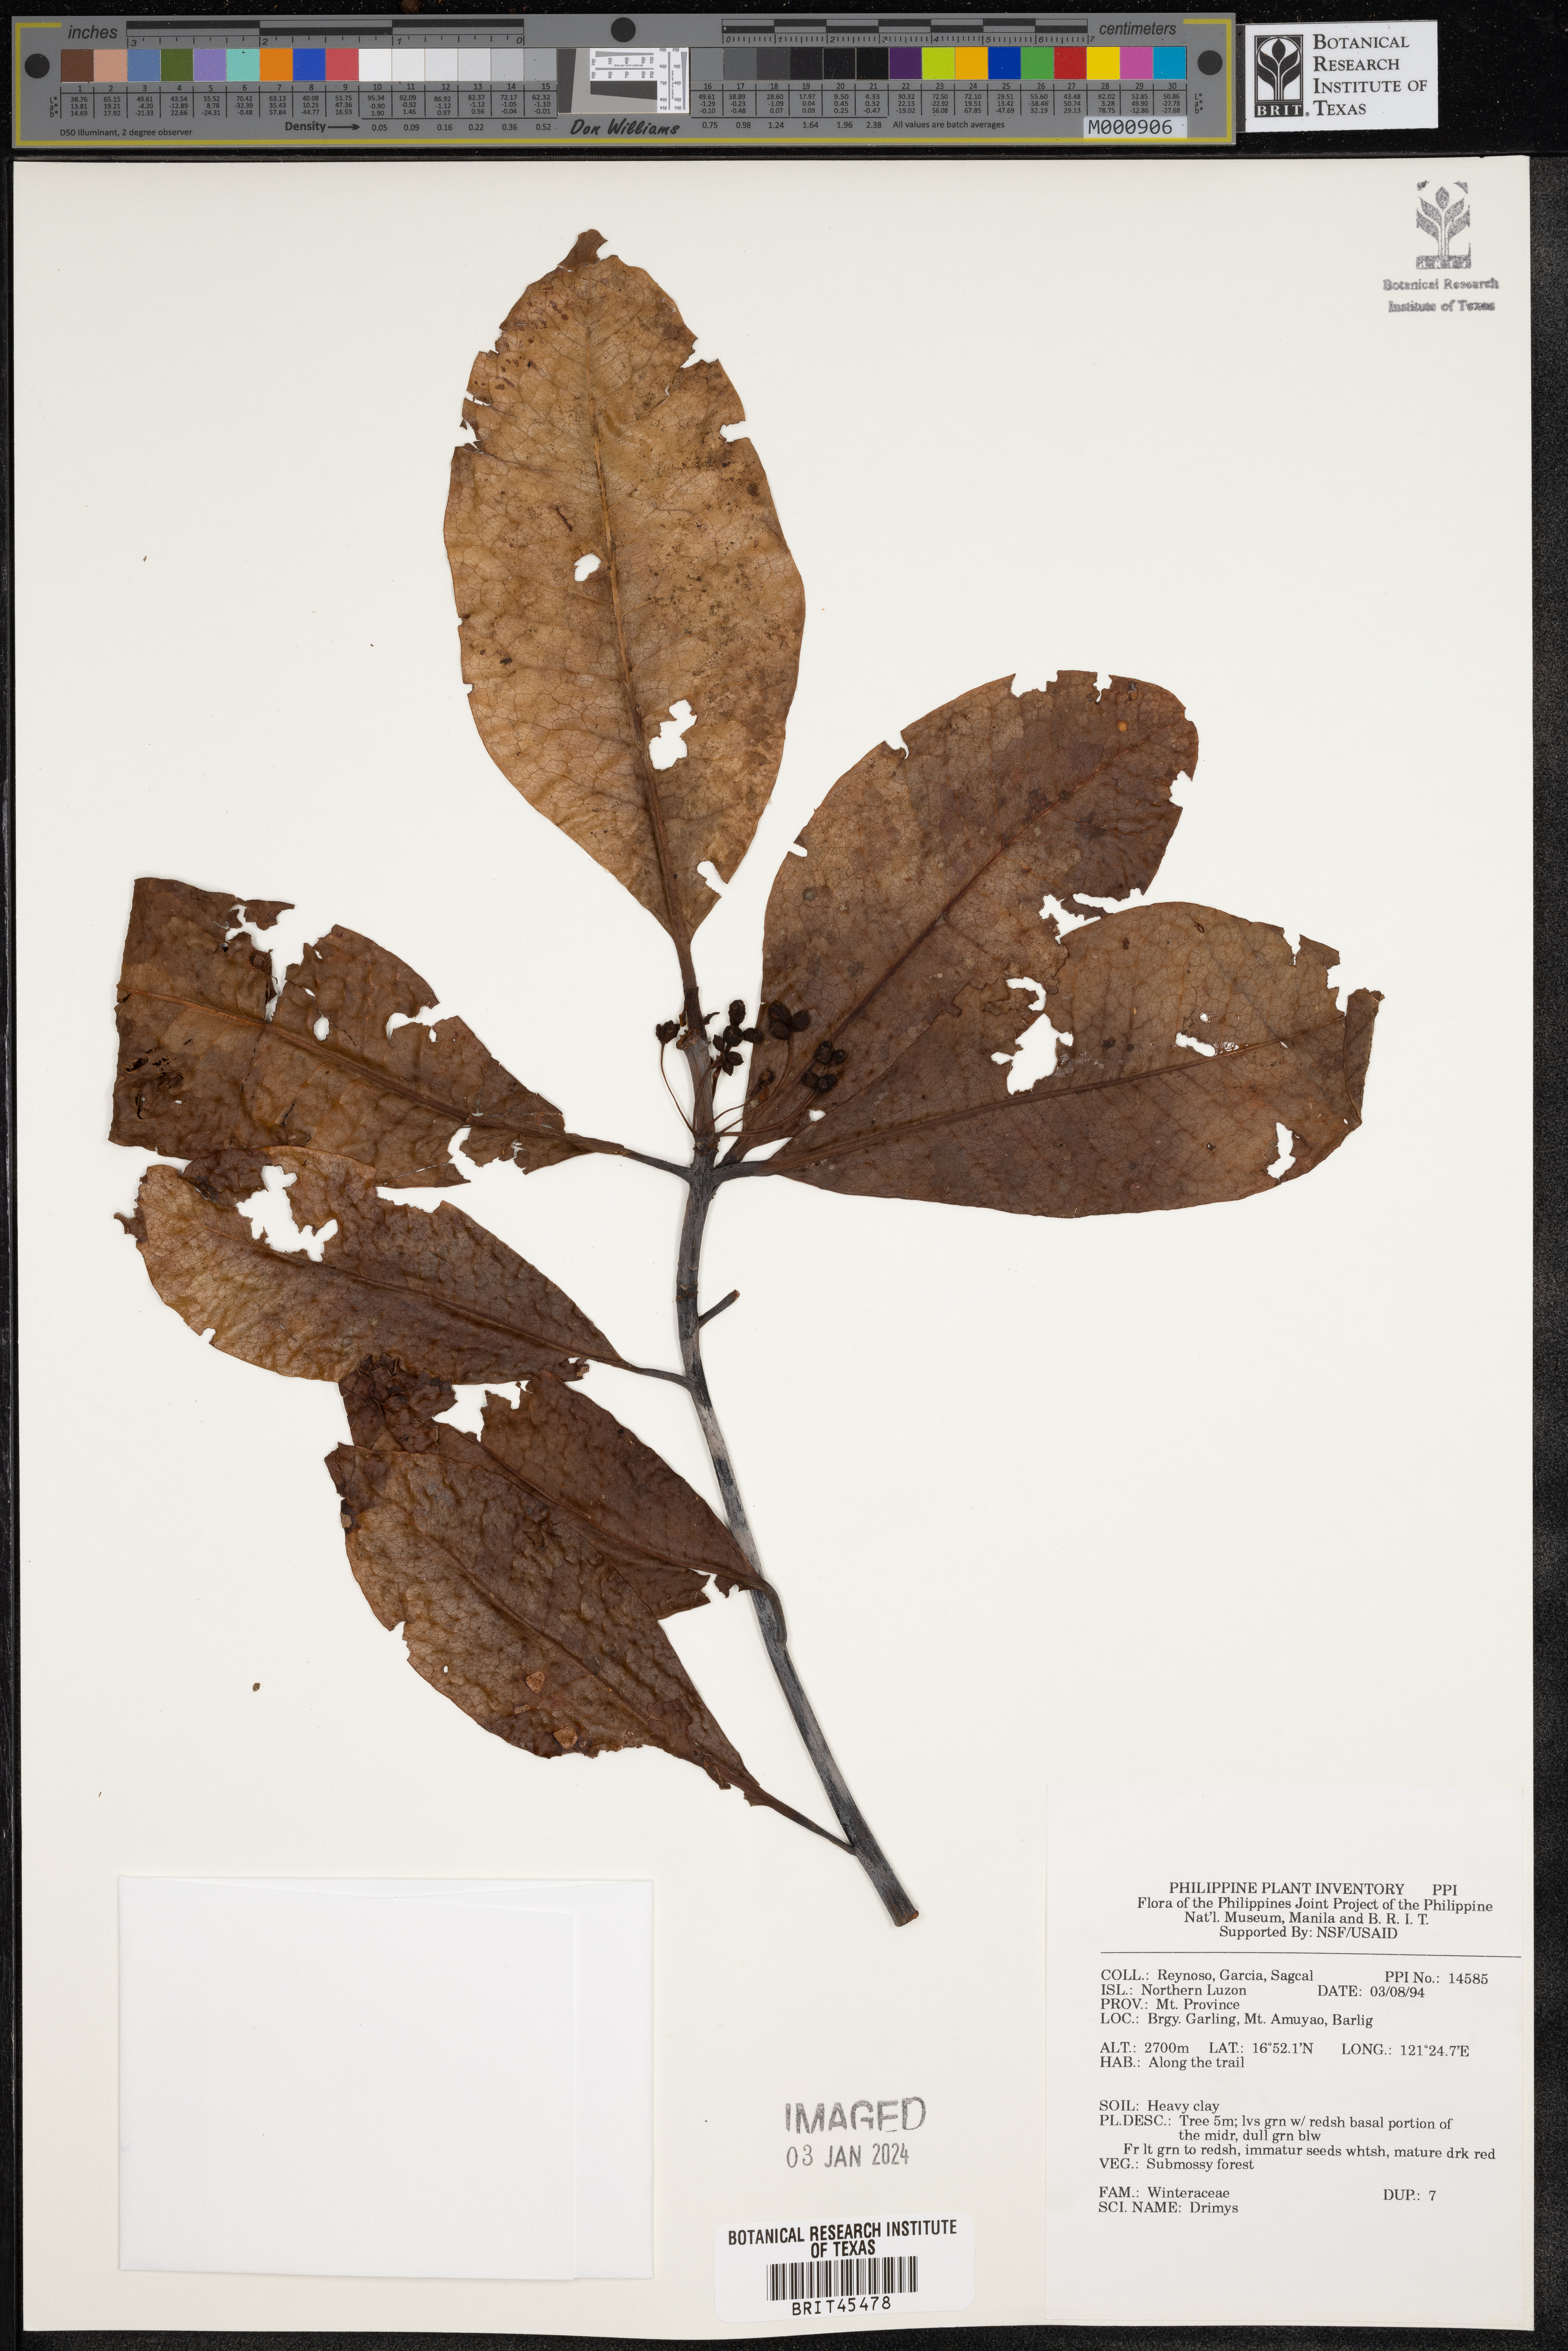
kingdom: Plantae
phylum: Tracheophyta
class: Magnoliopsida
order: Canellales
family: Winteraceae
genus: Drimys
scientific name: Drimys
